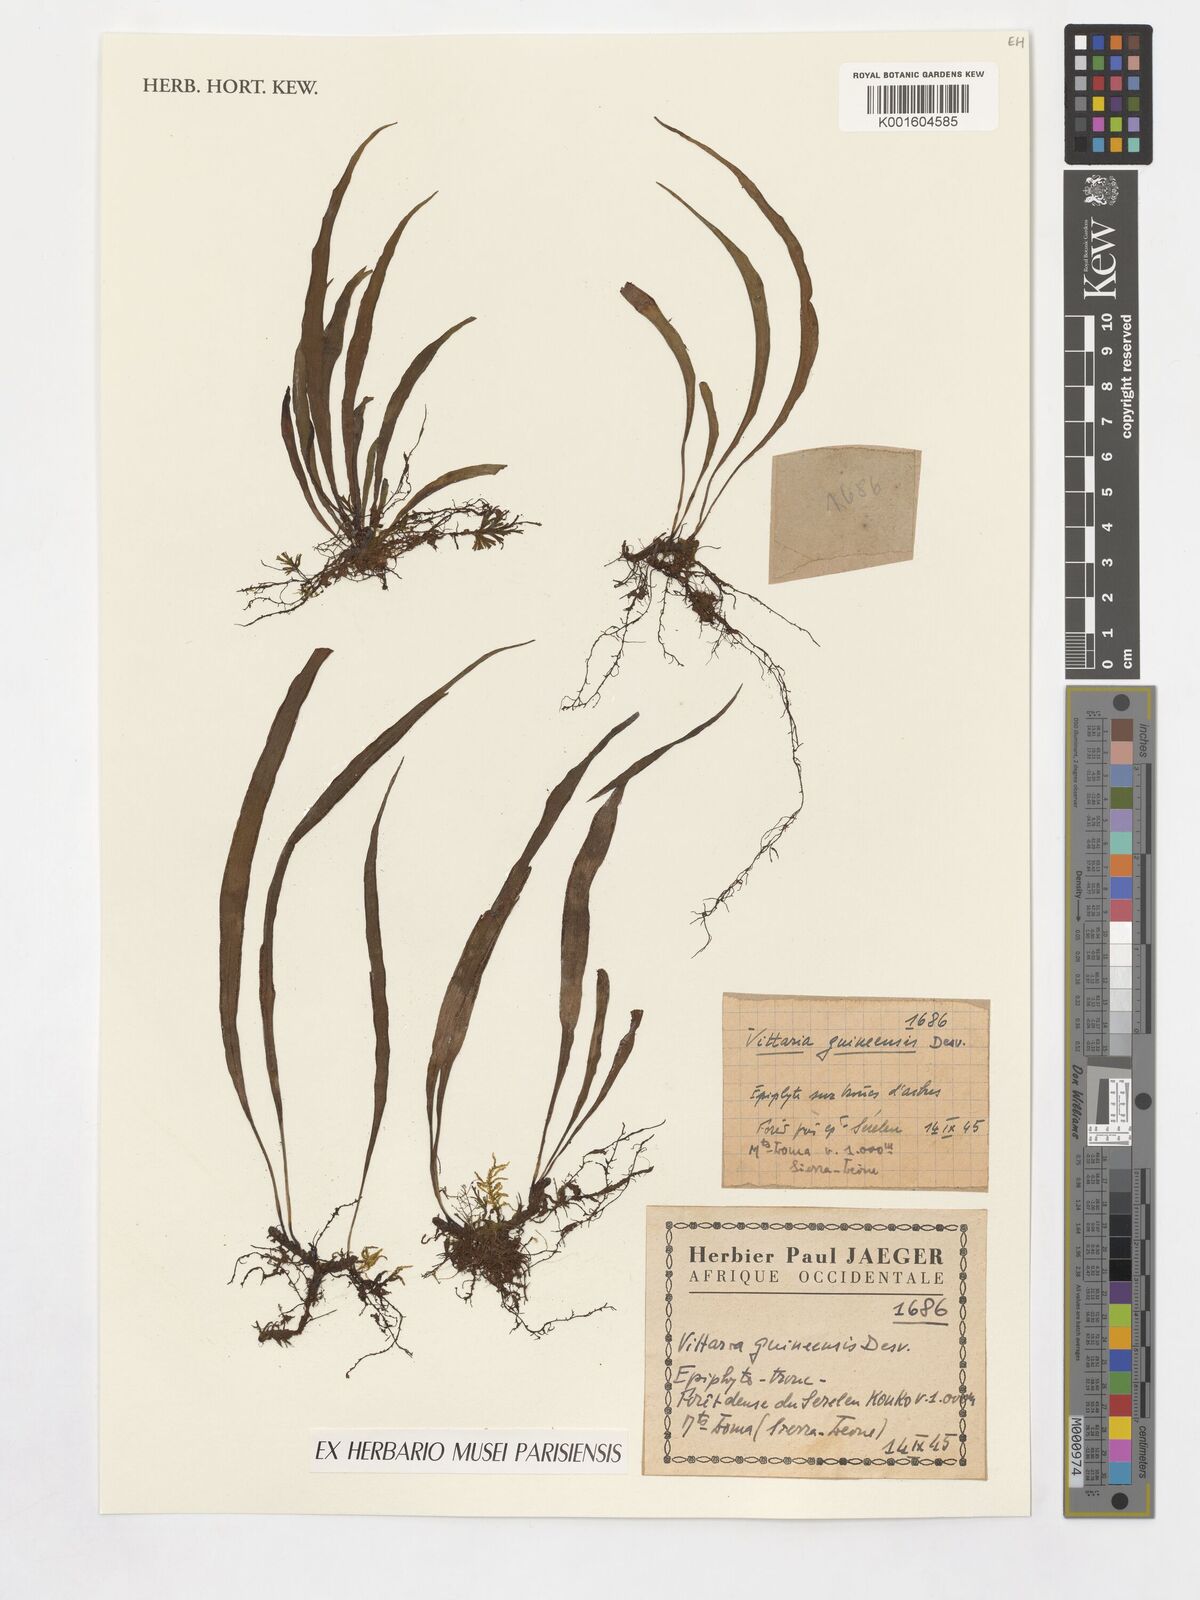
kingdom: Plantae
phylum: Tracheophyta
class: Polypodiopsida
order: Polypodiales
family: Pteridaceae
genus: Haplopteris
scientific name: Haplopteris guineensis
